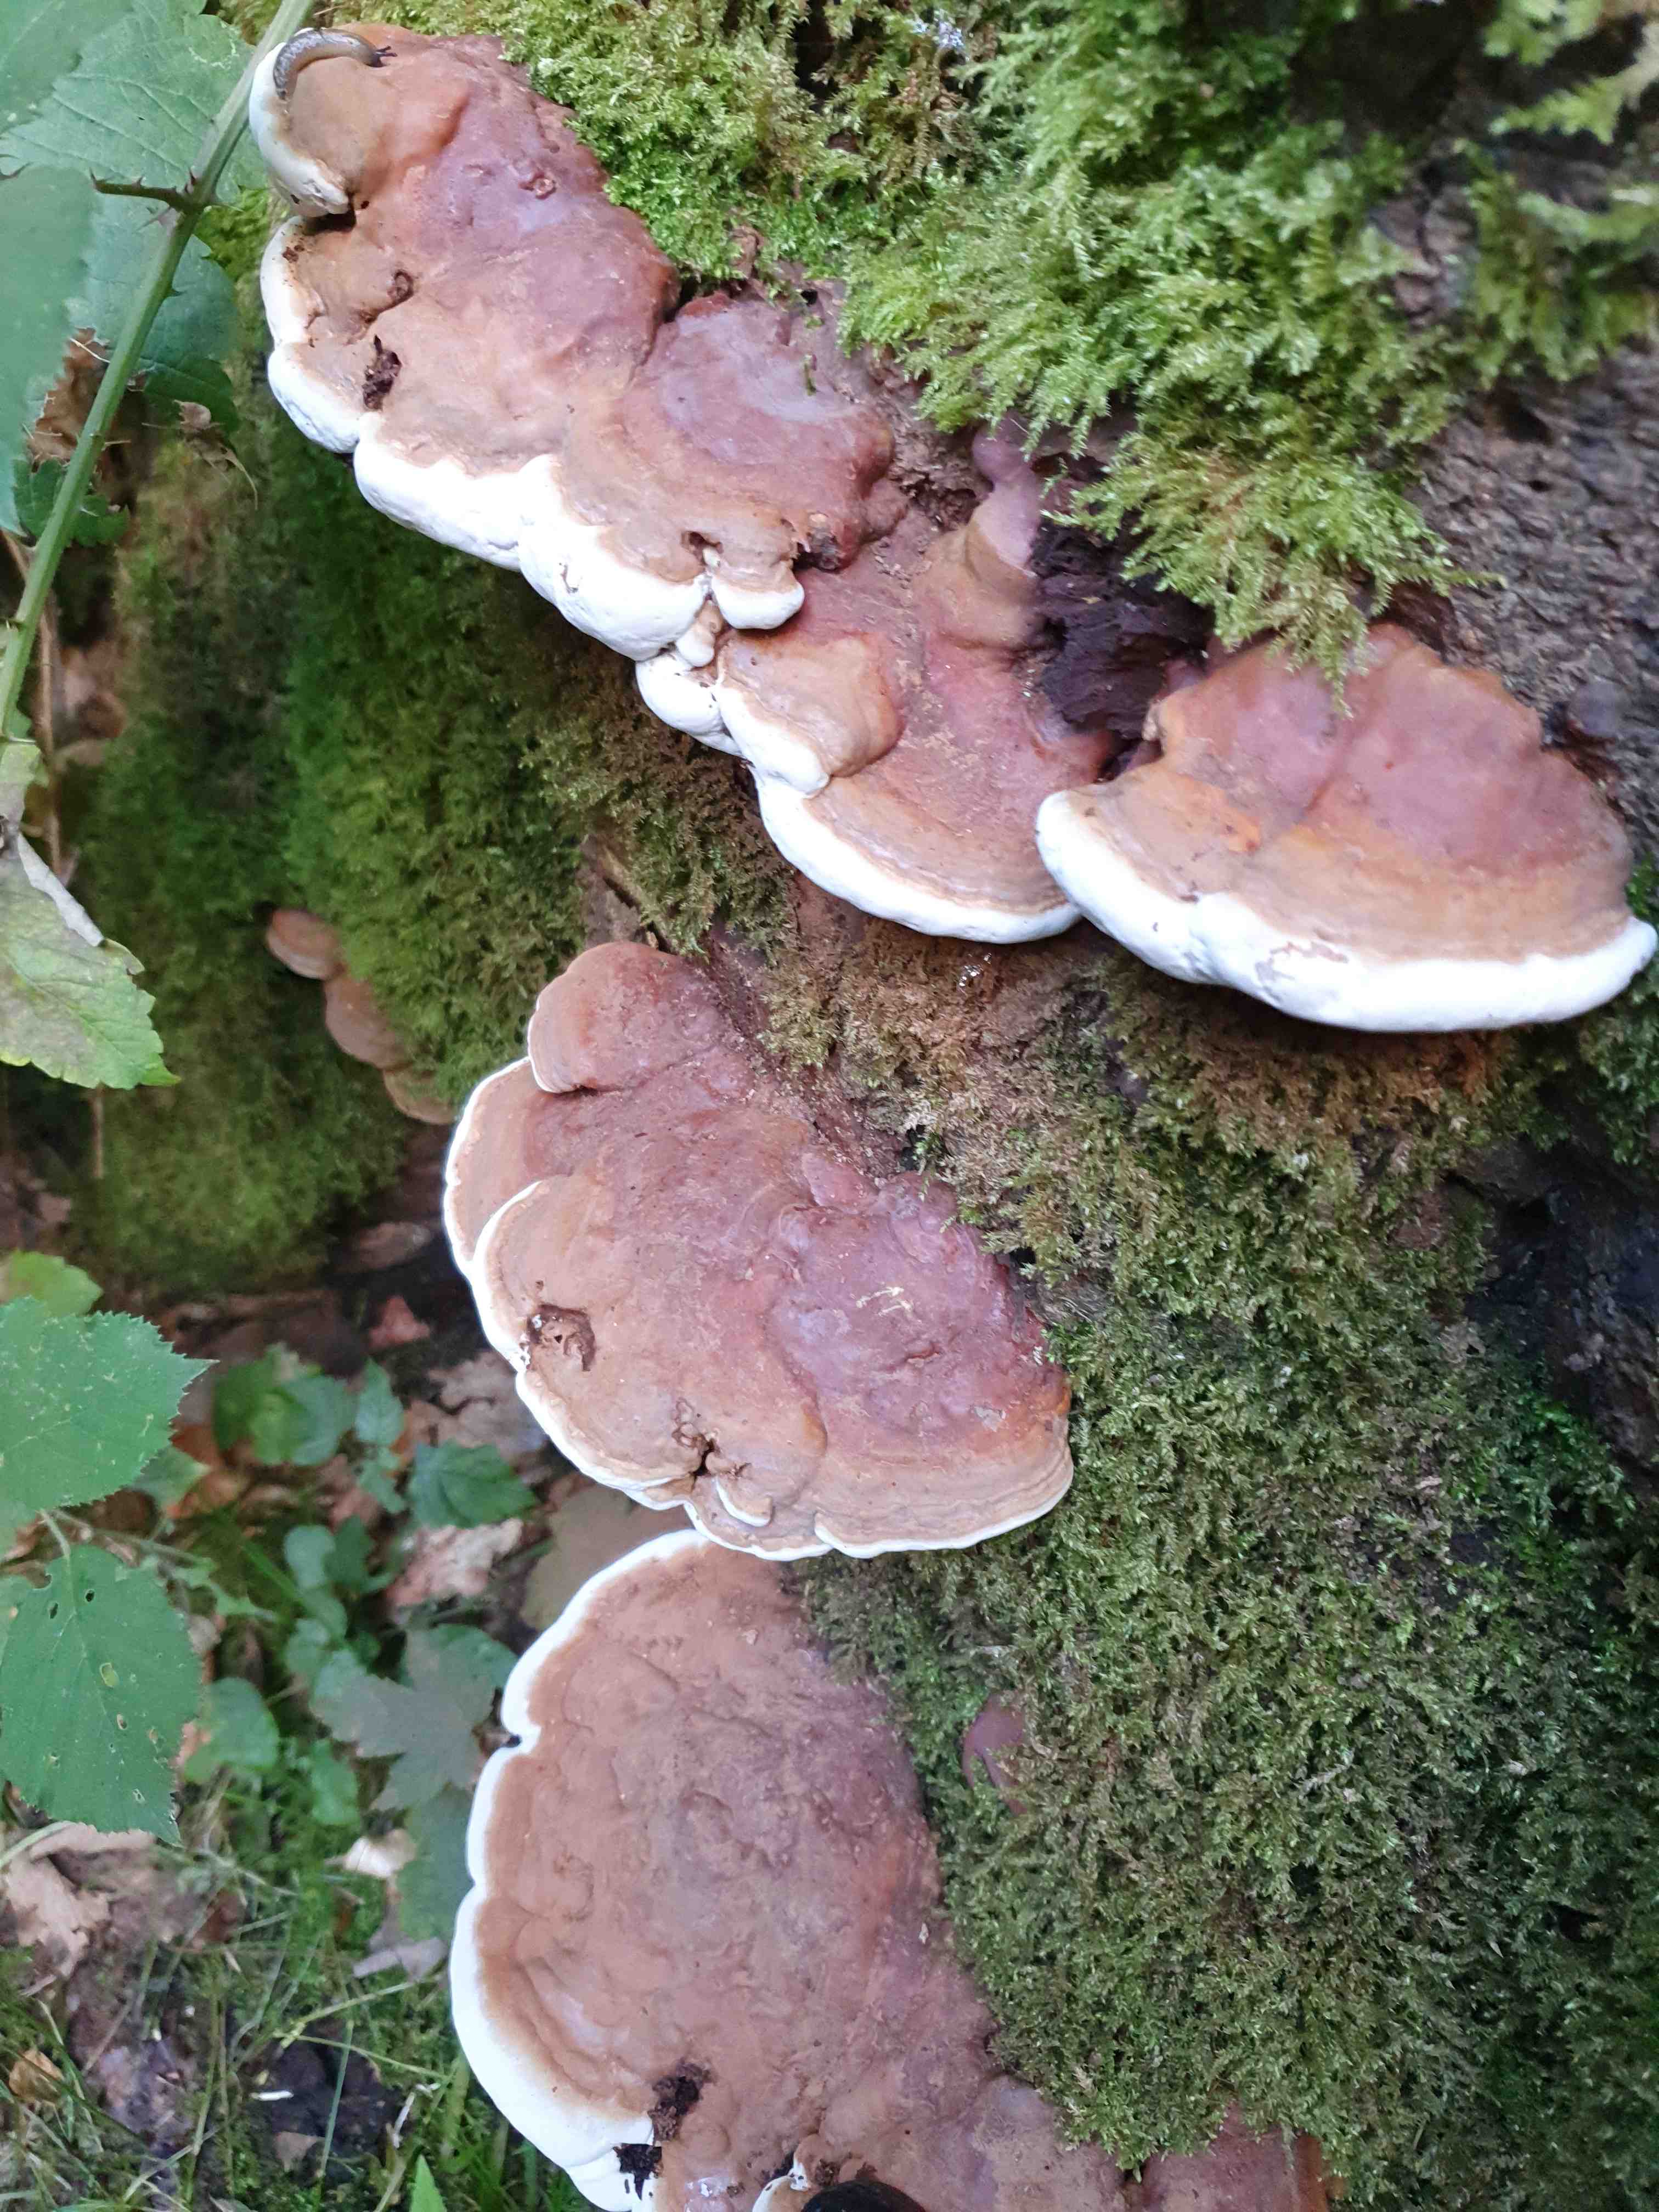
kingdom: Fungi
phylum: Basidiomycota
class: Agaricomycetes
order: Polyporales
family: Polyporaceae
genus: Ganoderma
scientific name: Ganoderma pfeifferi
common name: kobberrød lakporesvamp
